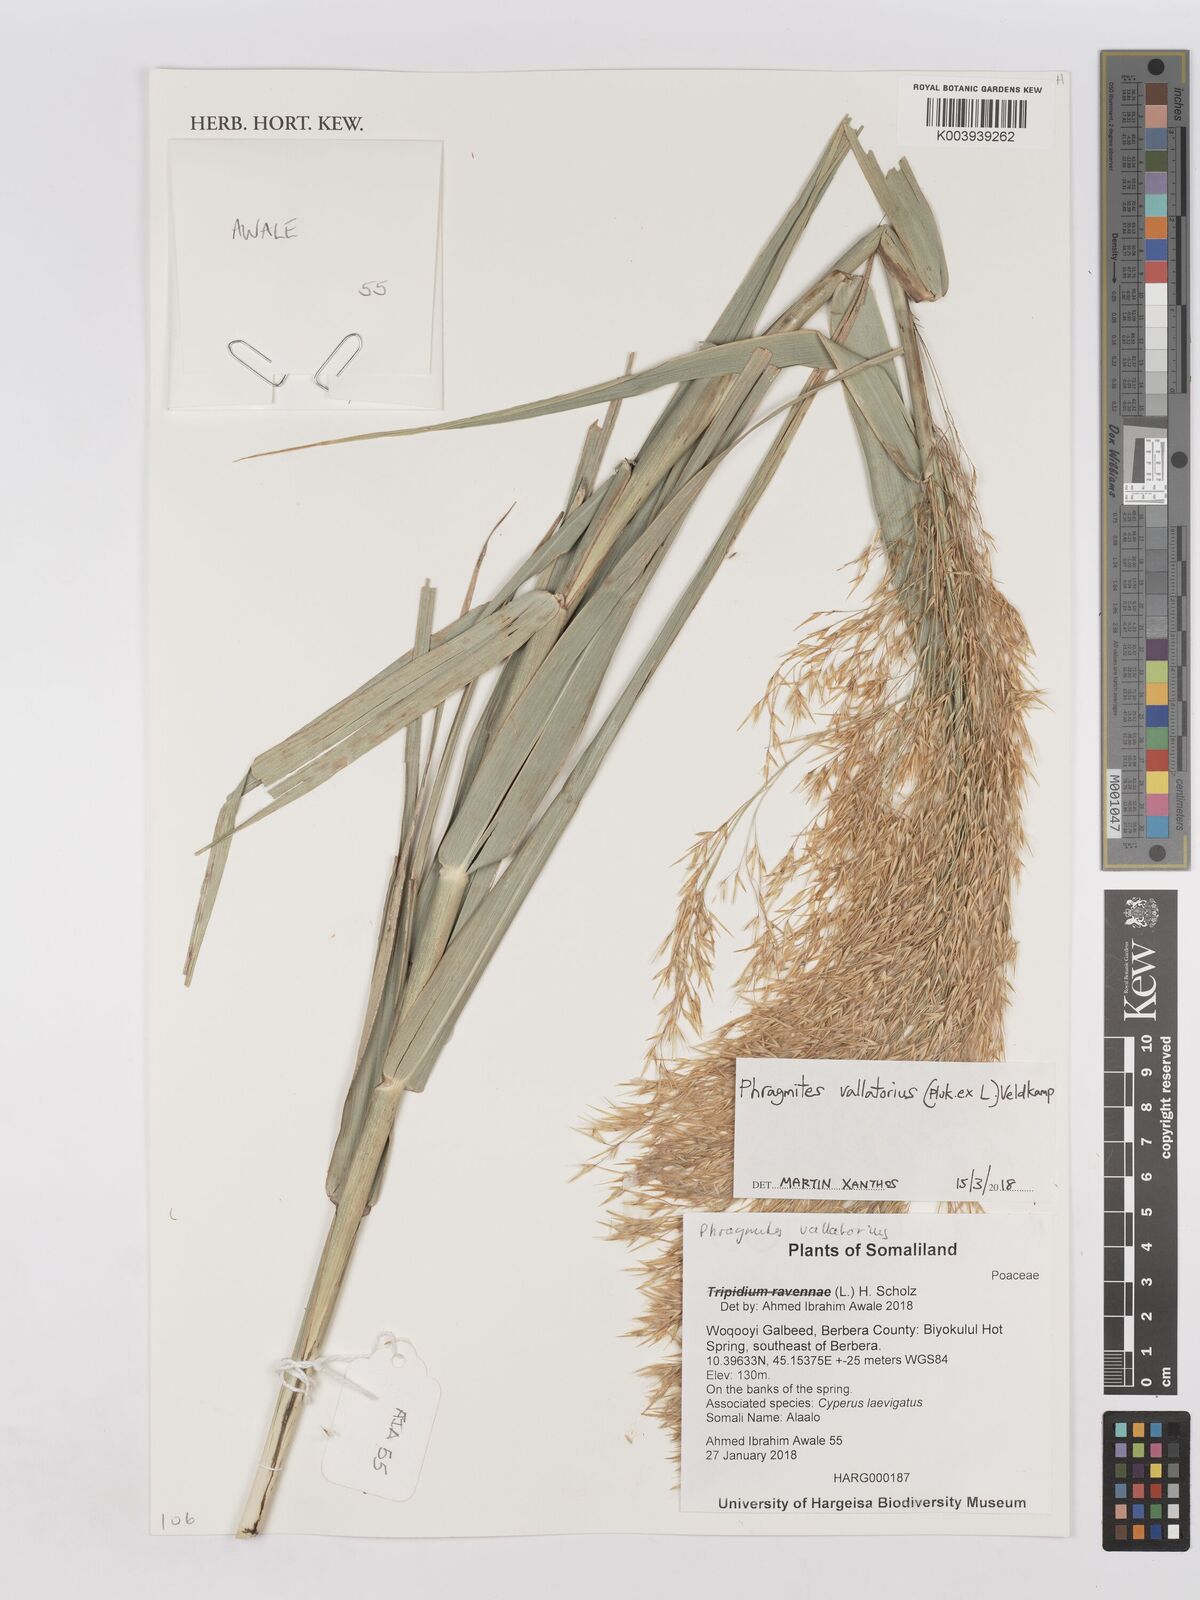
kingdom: Plantae
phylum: Tracheophyta
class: Liliopsida
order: Poales
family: Poaceae
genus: Phragmites
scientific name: Phragmites karka
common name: Tropical reed
